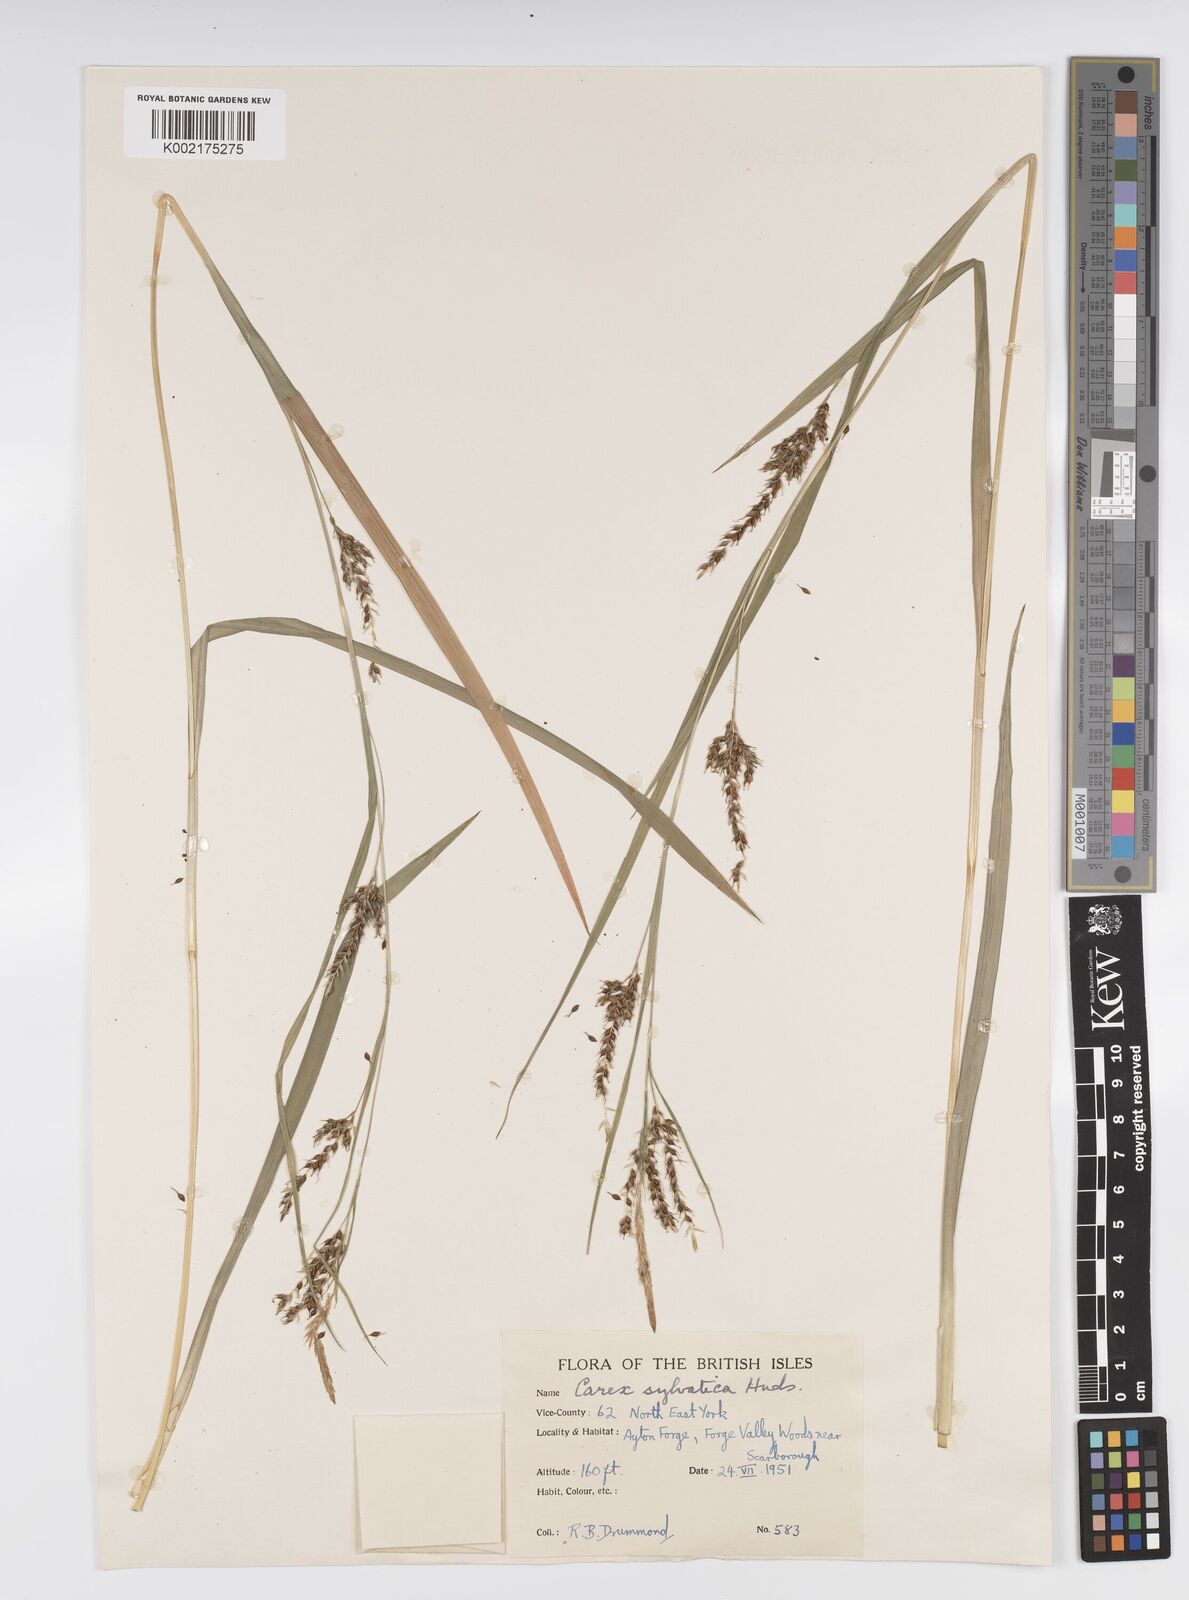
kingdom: Plantae
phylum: Tracheophyta
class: Liliopsida
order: Poales
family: Cyperaceae
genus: Carex
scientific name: Carex sylvatica
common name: Wood-sedge
